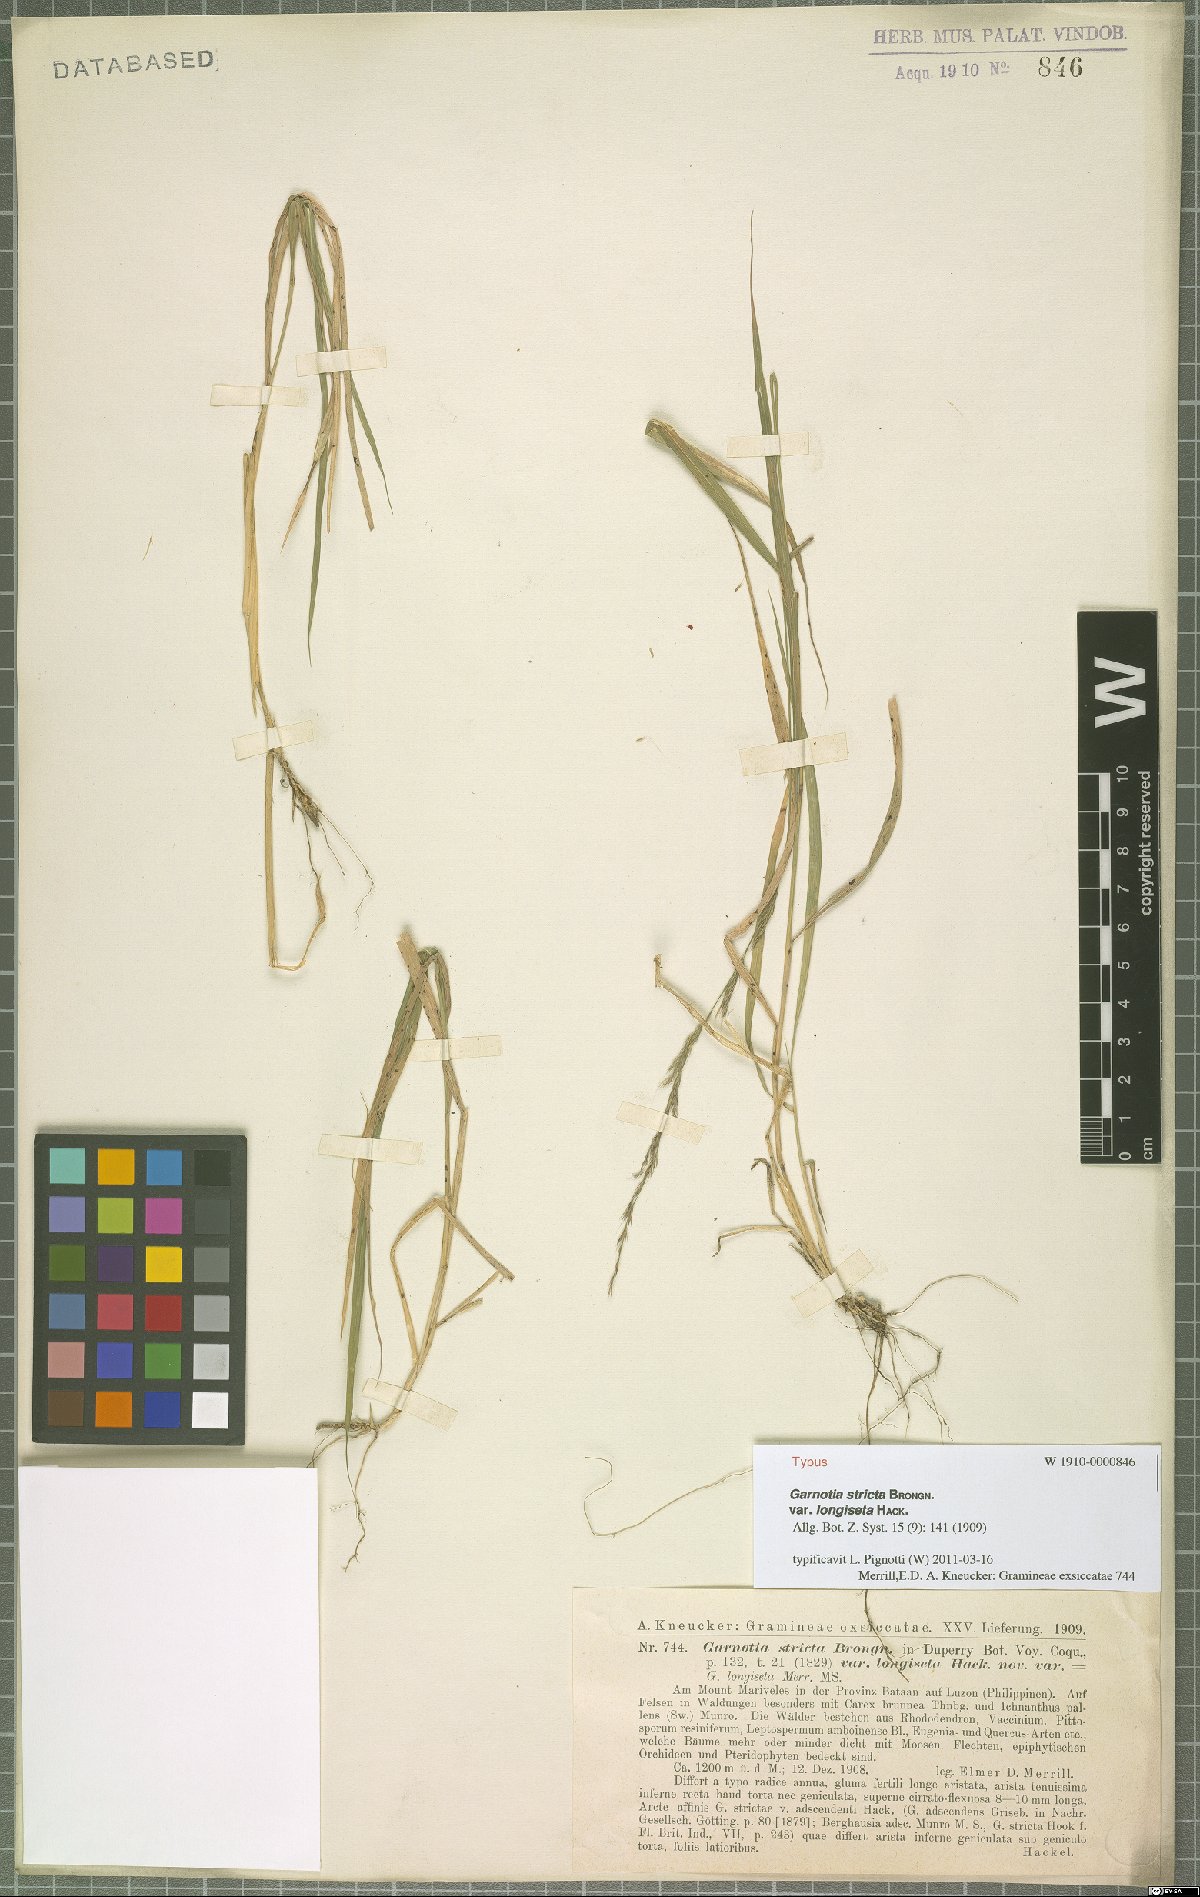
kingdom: Plantae
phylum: Tracheophyta
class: Liliopsida
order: Poales
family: Poaceae
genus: Garnotia
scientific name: Garnotia stricta
